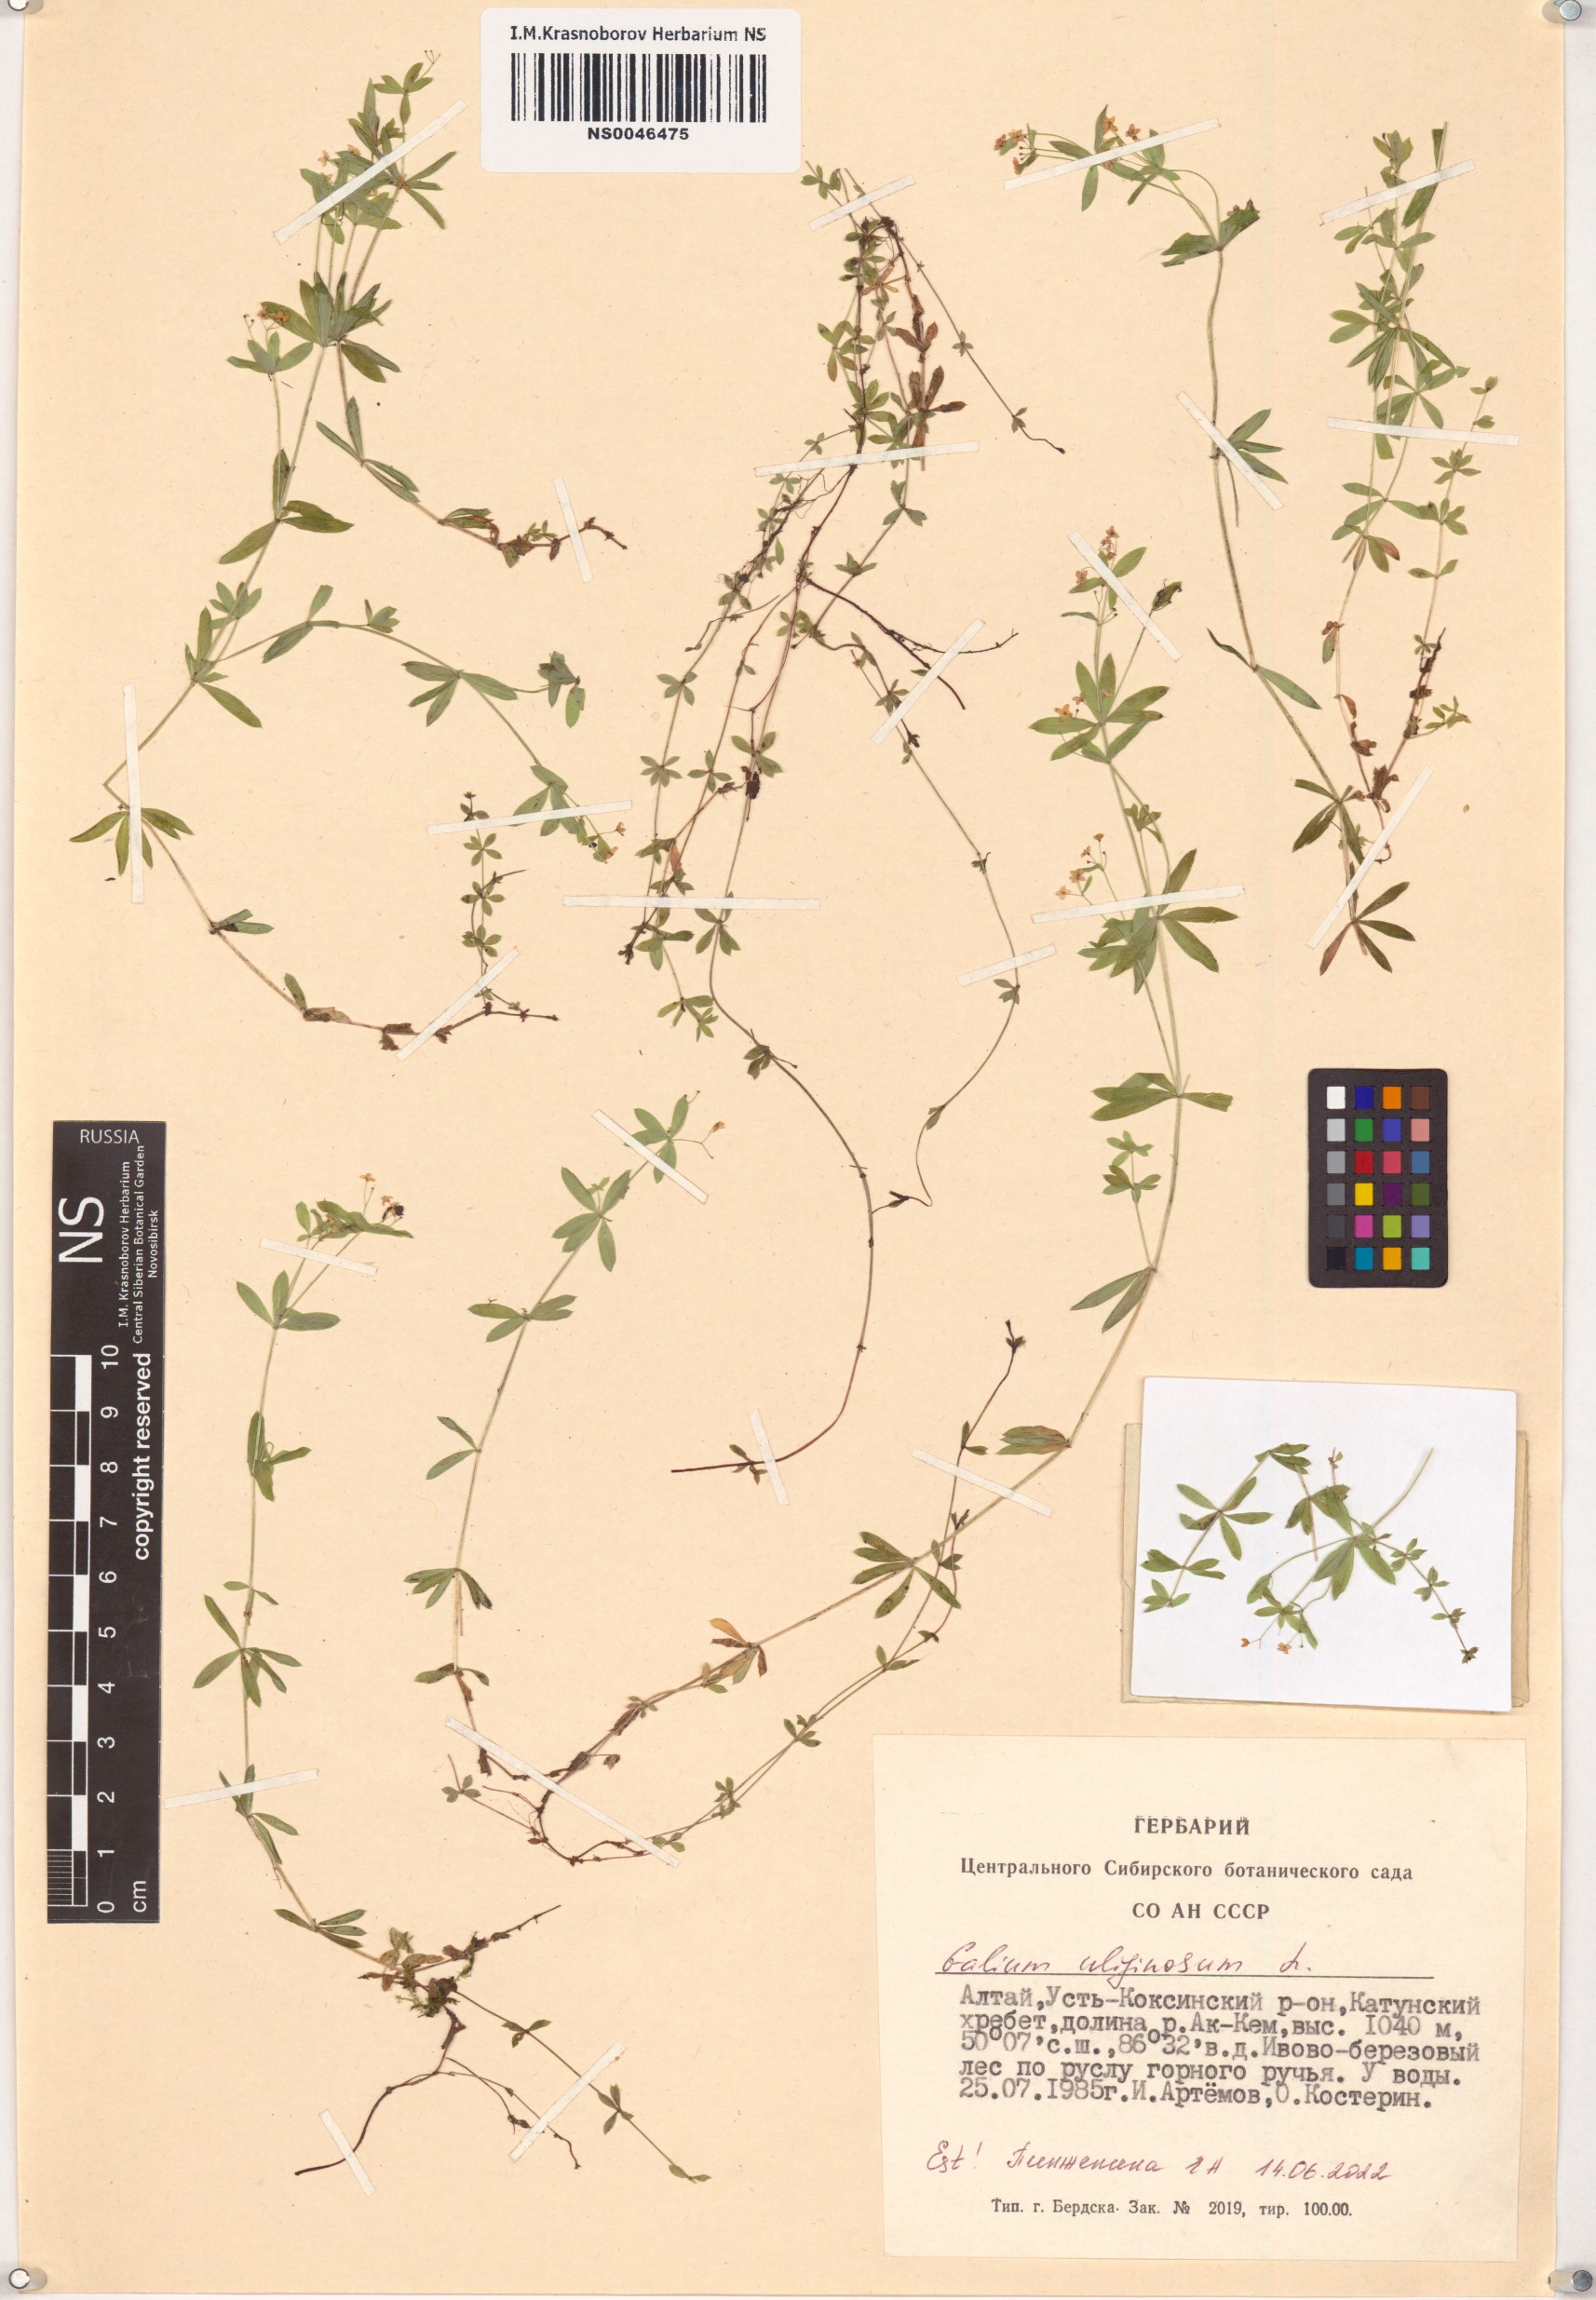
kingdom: Plantae
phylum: Tracheophyta
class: Magnoliopsida
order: Gentianales
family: Rubiaceae
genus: Galium
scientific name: Galium uliginosum
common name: Fen bedstraw
